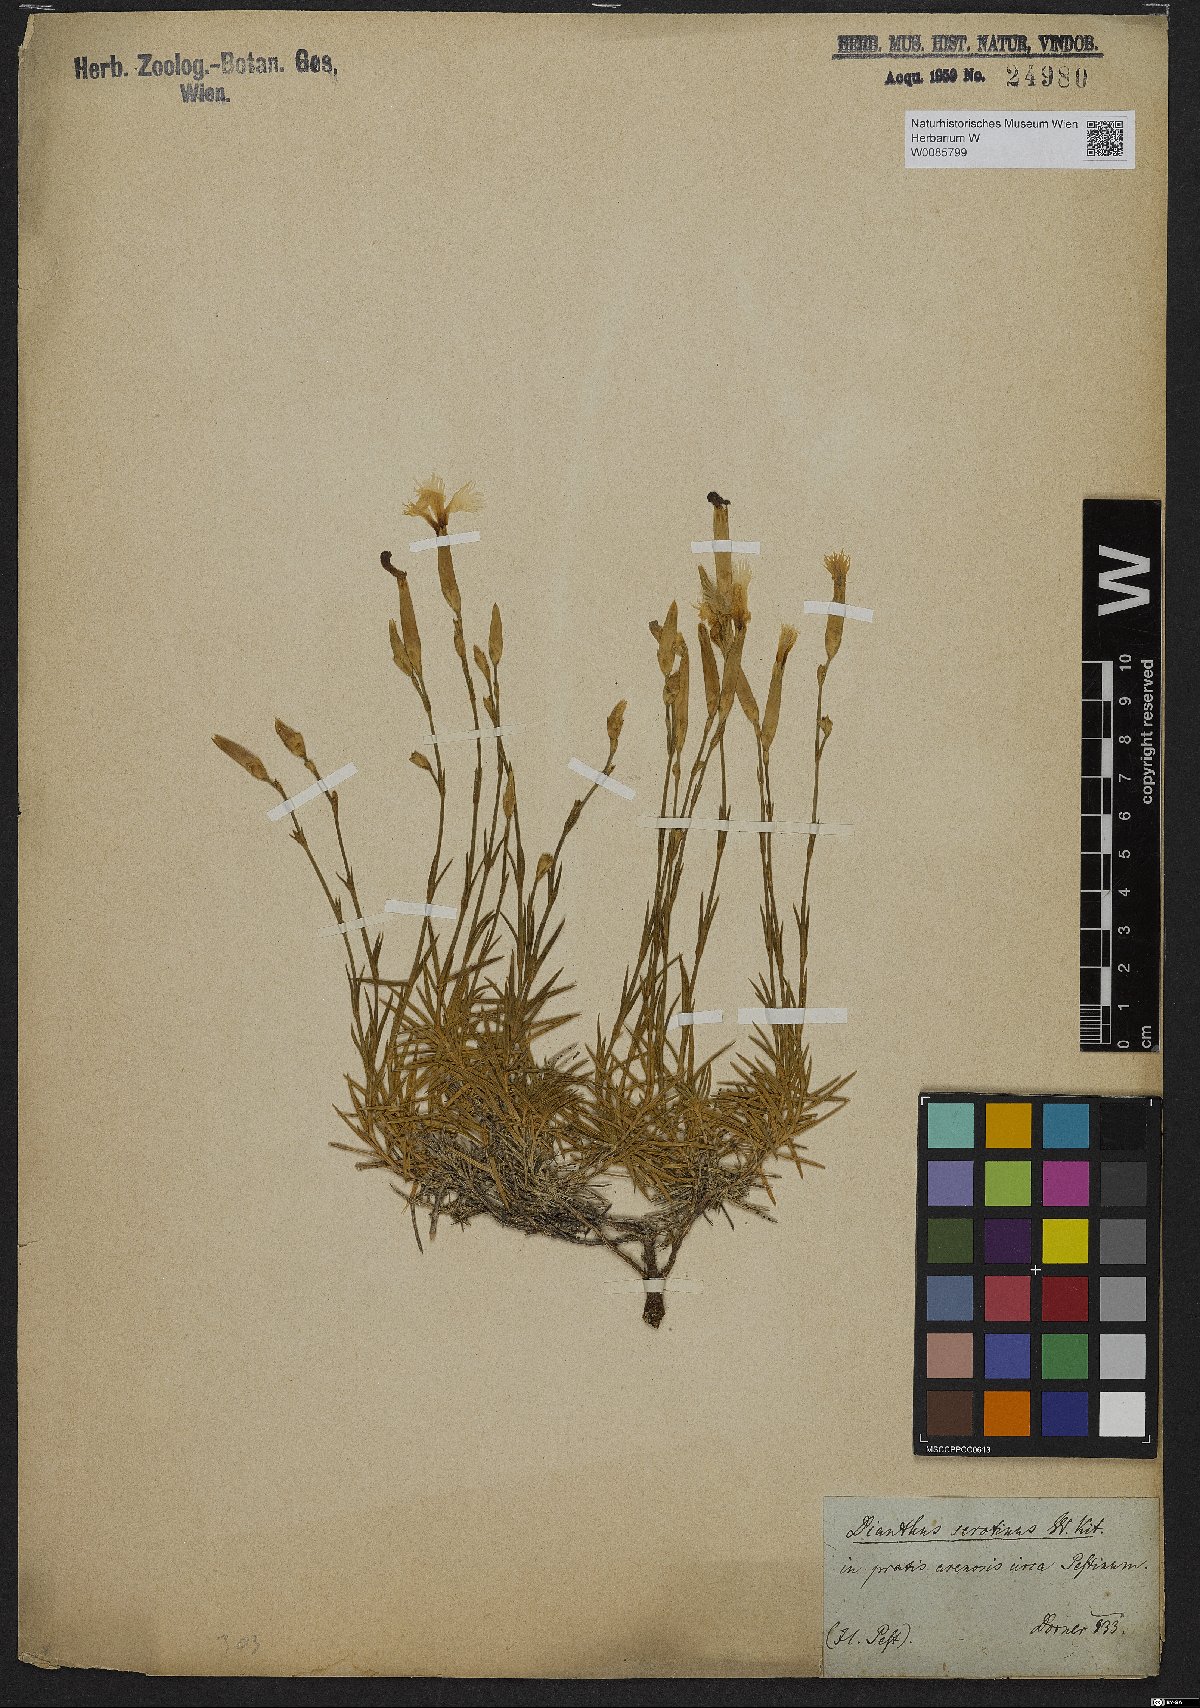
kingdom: Plantae
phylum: Tracheophyta
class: Magnoliopsida
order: Caryophyllales
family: Caryophyllaceae
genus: Dianthus
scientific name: Dianthus serotinus
